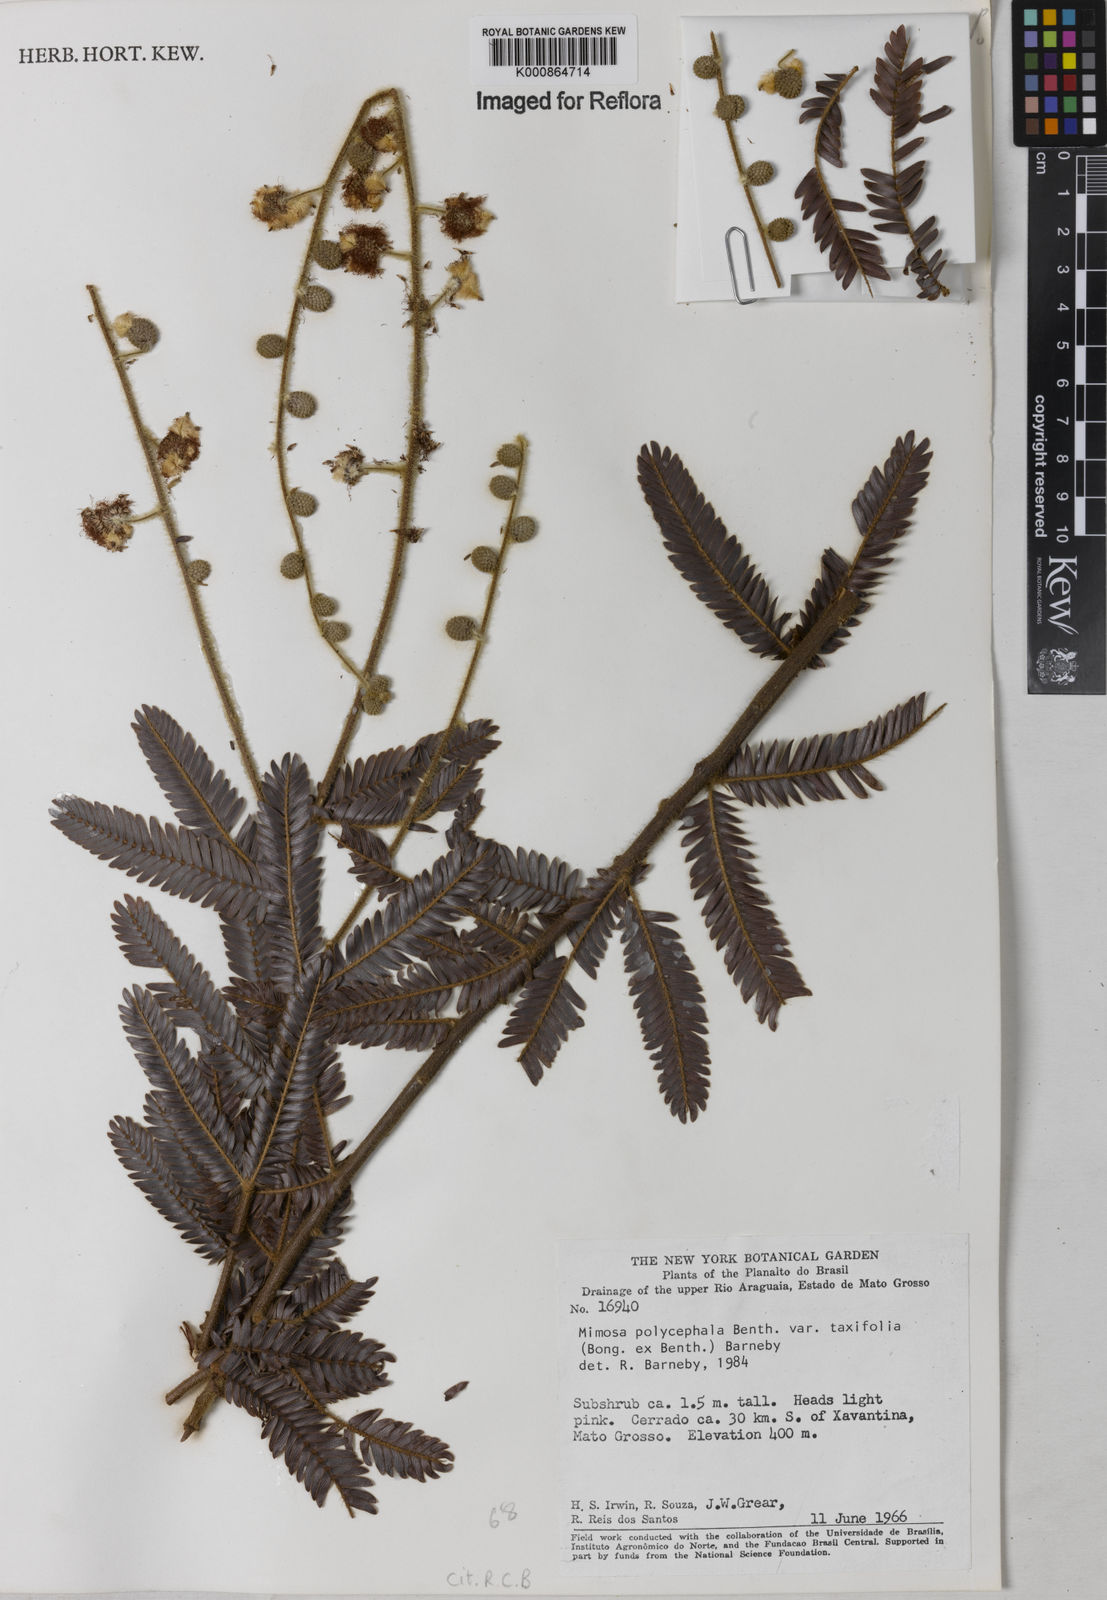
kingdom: Plantae
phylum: Tracheophyta
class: Magnoliopsida
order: Fabales
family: Fabaceae
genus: Mimosa
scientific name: Mimosa polycephala
